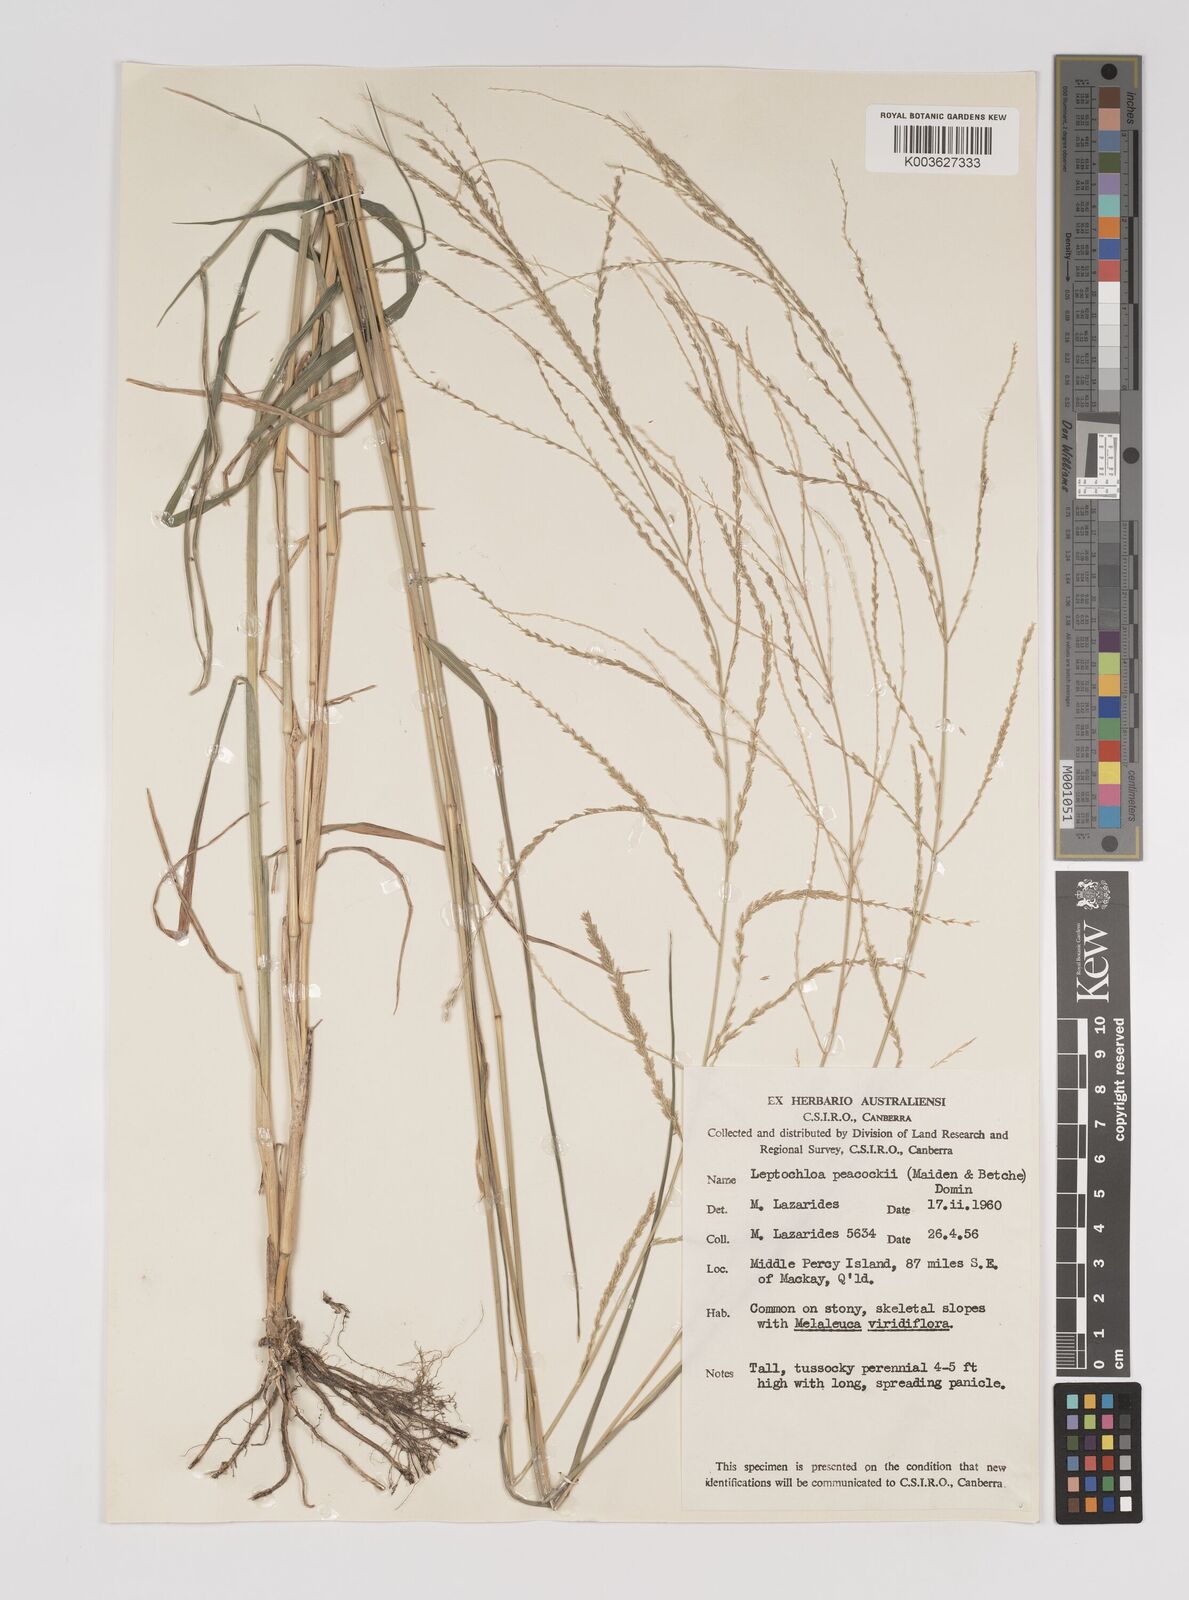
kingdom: Plantae
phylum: Tracheophyta
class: Liliopsida
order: Poales
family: Poaceae
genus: Leptochloa
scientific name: Leptochloa decipiens
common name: Australian sprangletop
